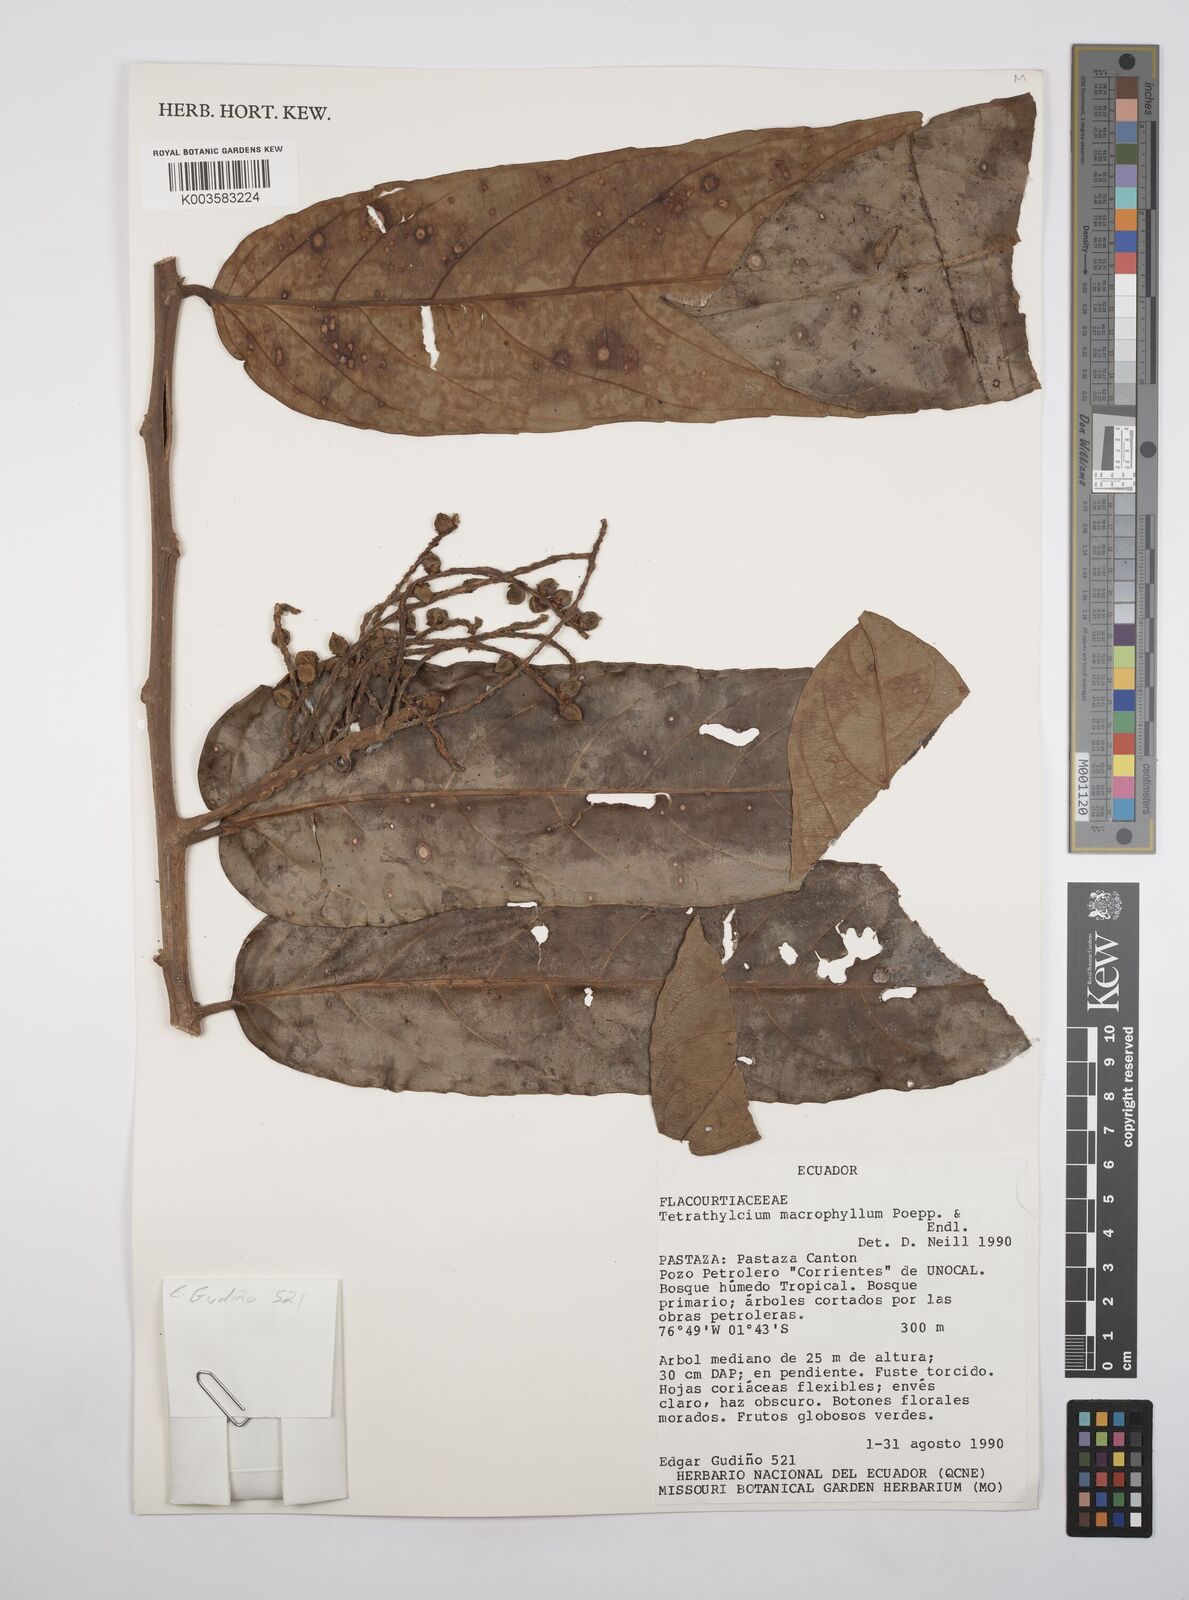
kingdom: Plantae
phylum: Tracheophyta
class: Magnoliopsida
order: Malpighiales
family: Salicaceae
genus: Tetrathylacium
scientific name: Tetrathylacium macrophyllum
